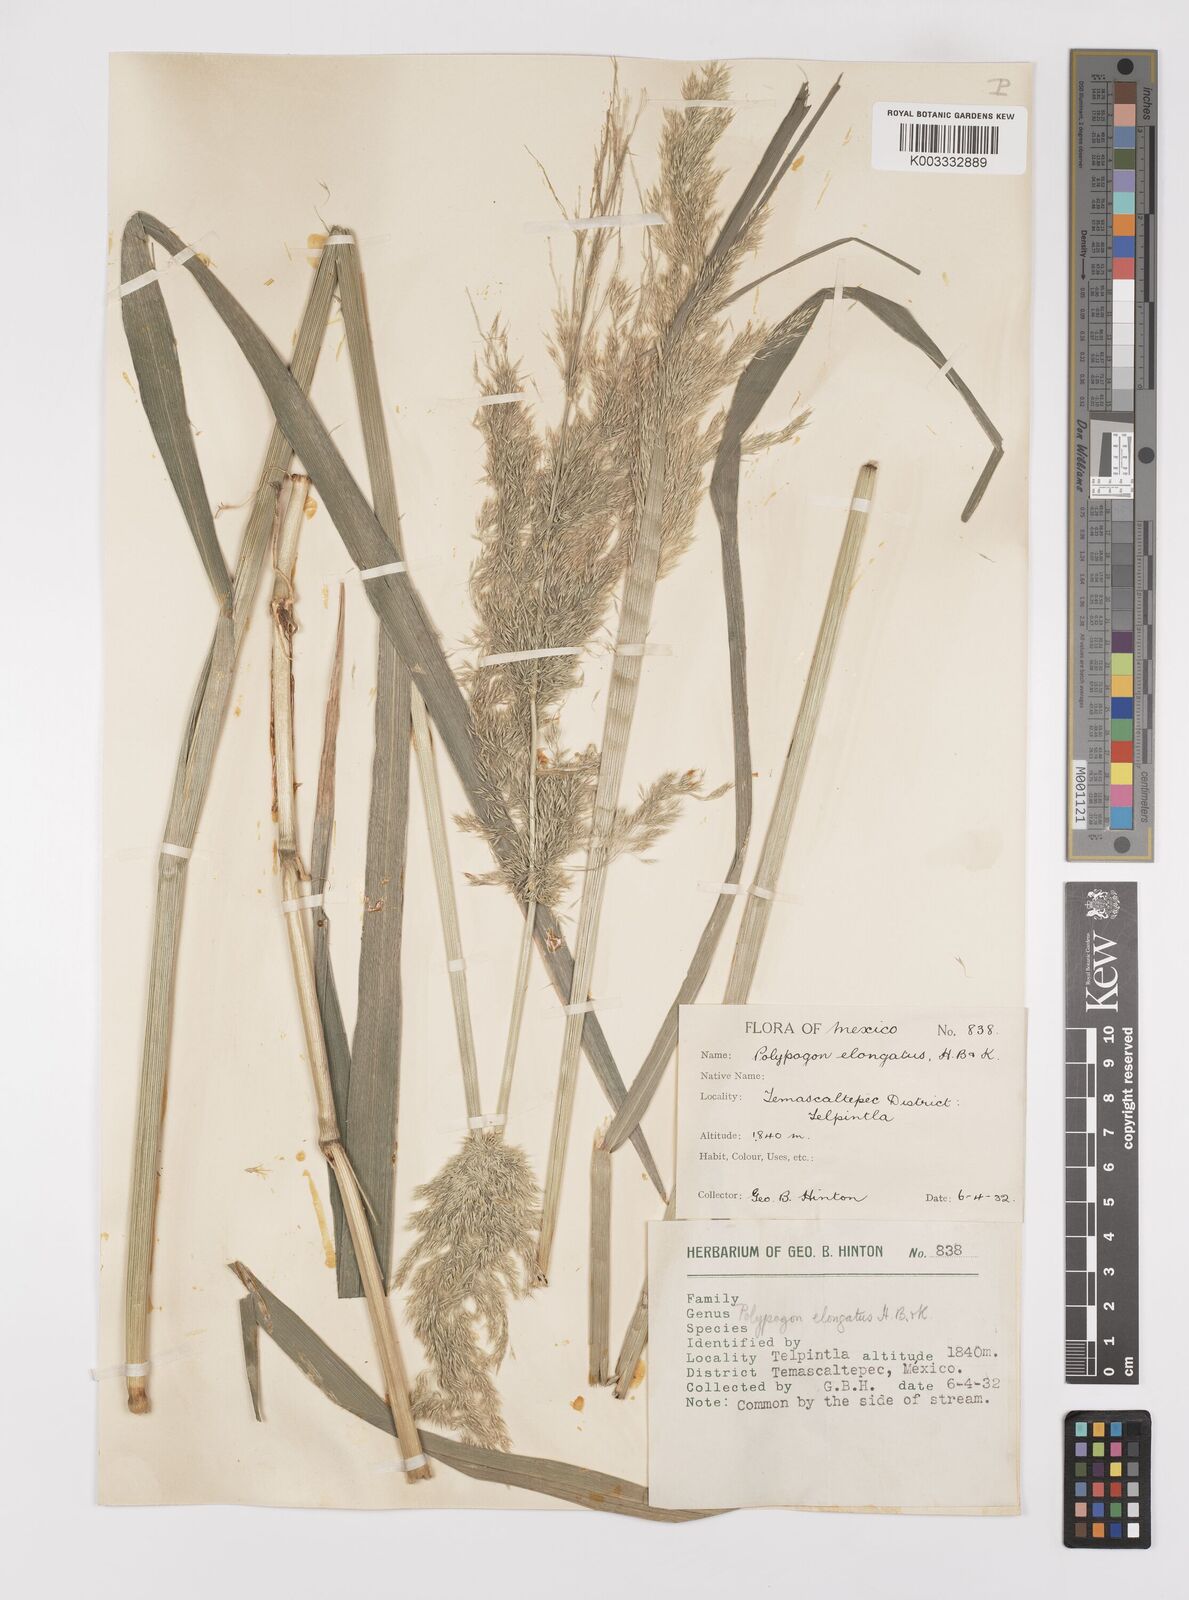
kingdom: Plantae
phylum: Tracheophyta
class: Liliopsida
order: Poales
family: Poaceae
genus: Polypogon
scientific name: Polypogon elongatus
